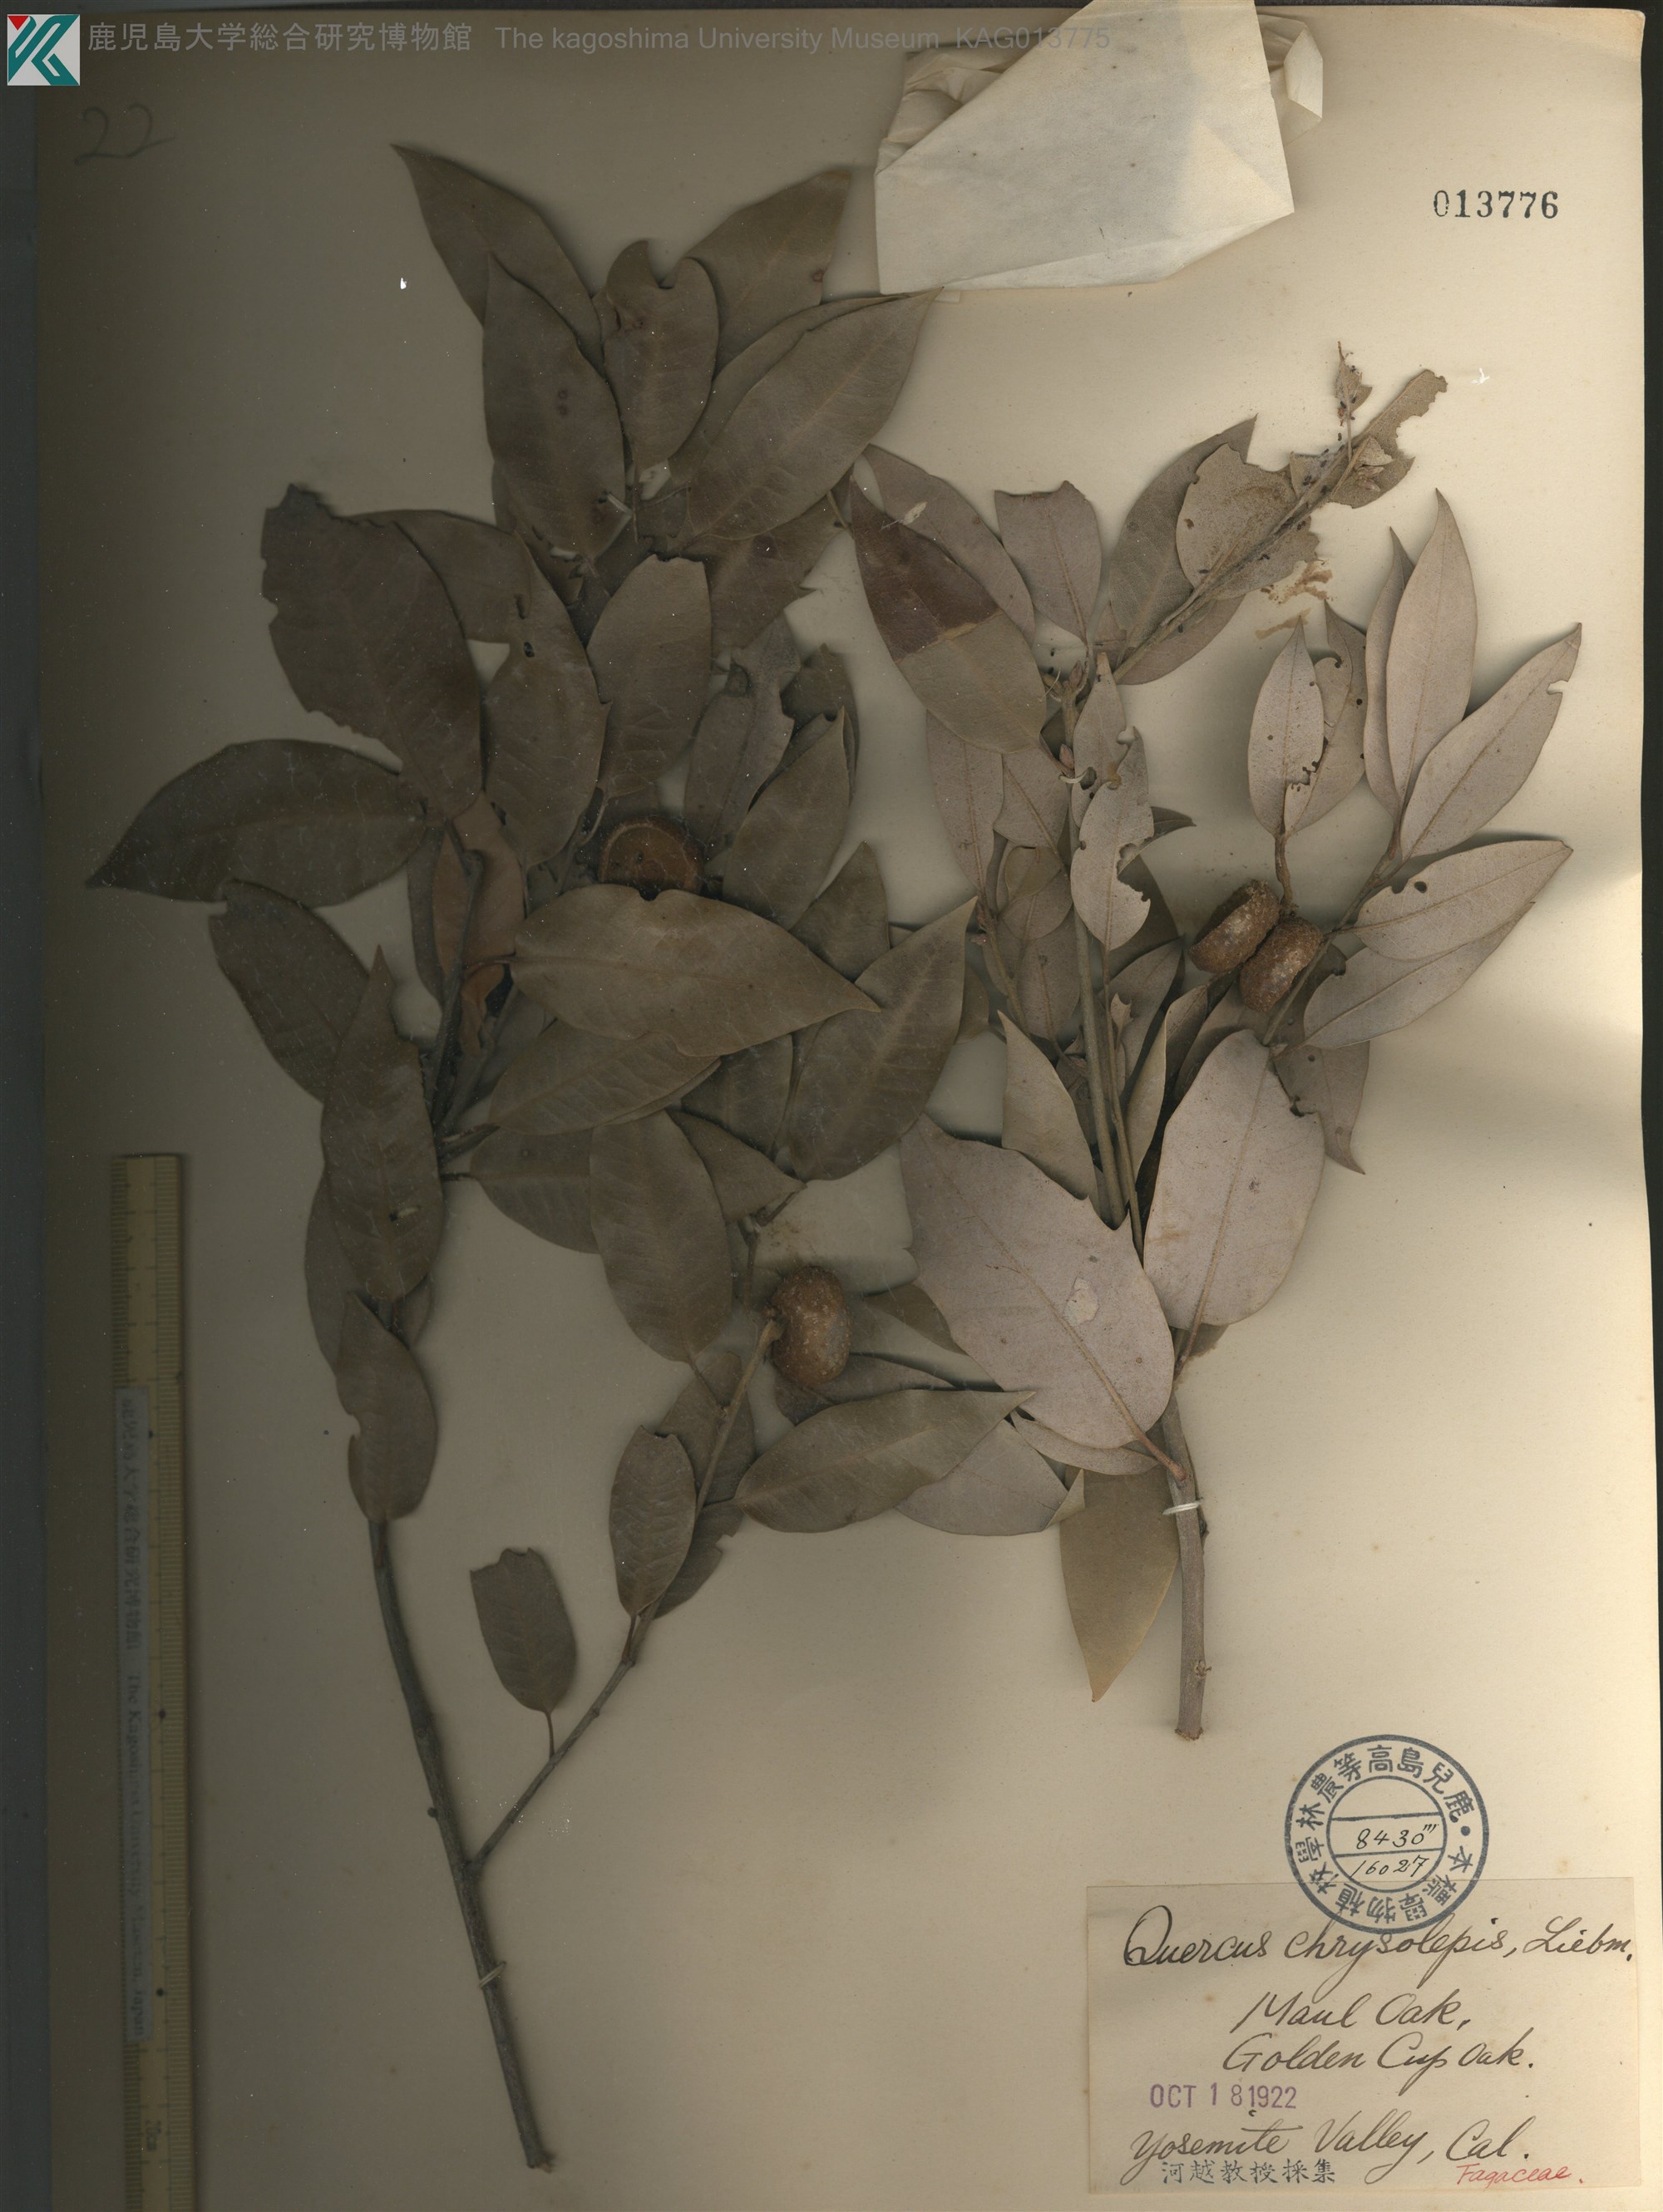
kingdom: Plantae
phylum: Tracheophyta
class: Magnoliopsida
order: Fagales
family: Fagaceae
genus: Quercus
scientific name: Quercus chrysolepis
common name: Canyon live oak
